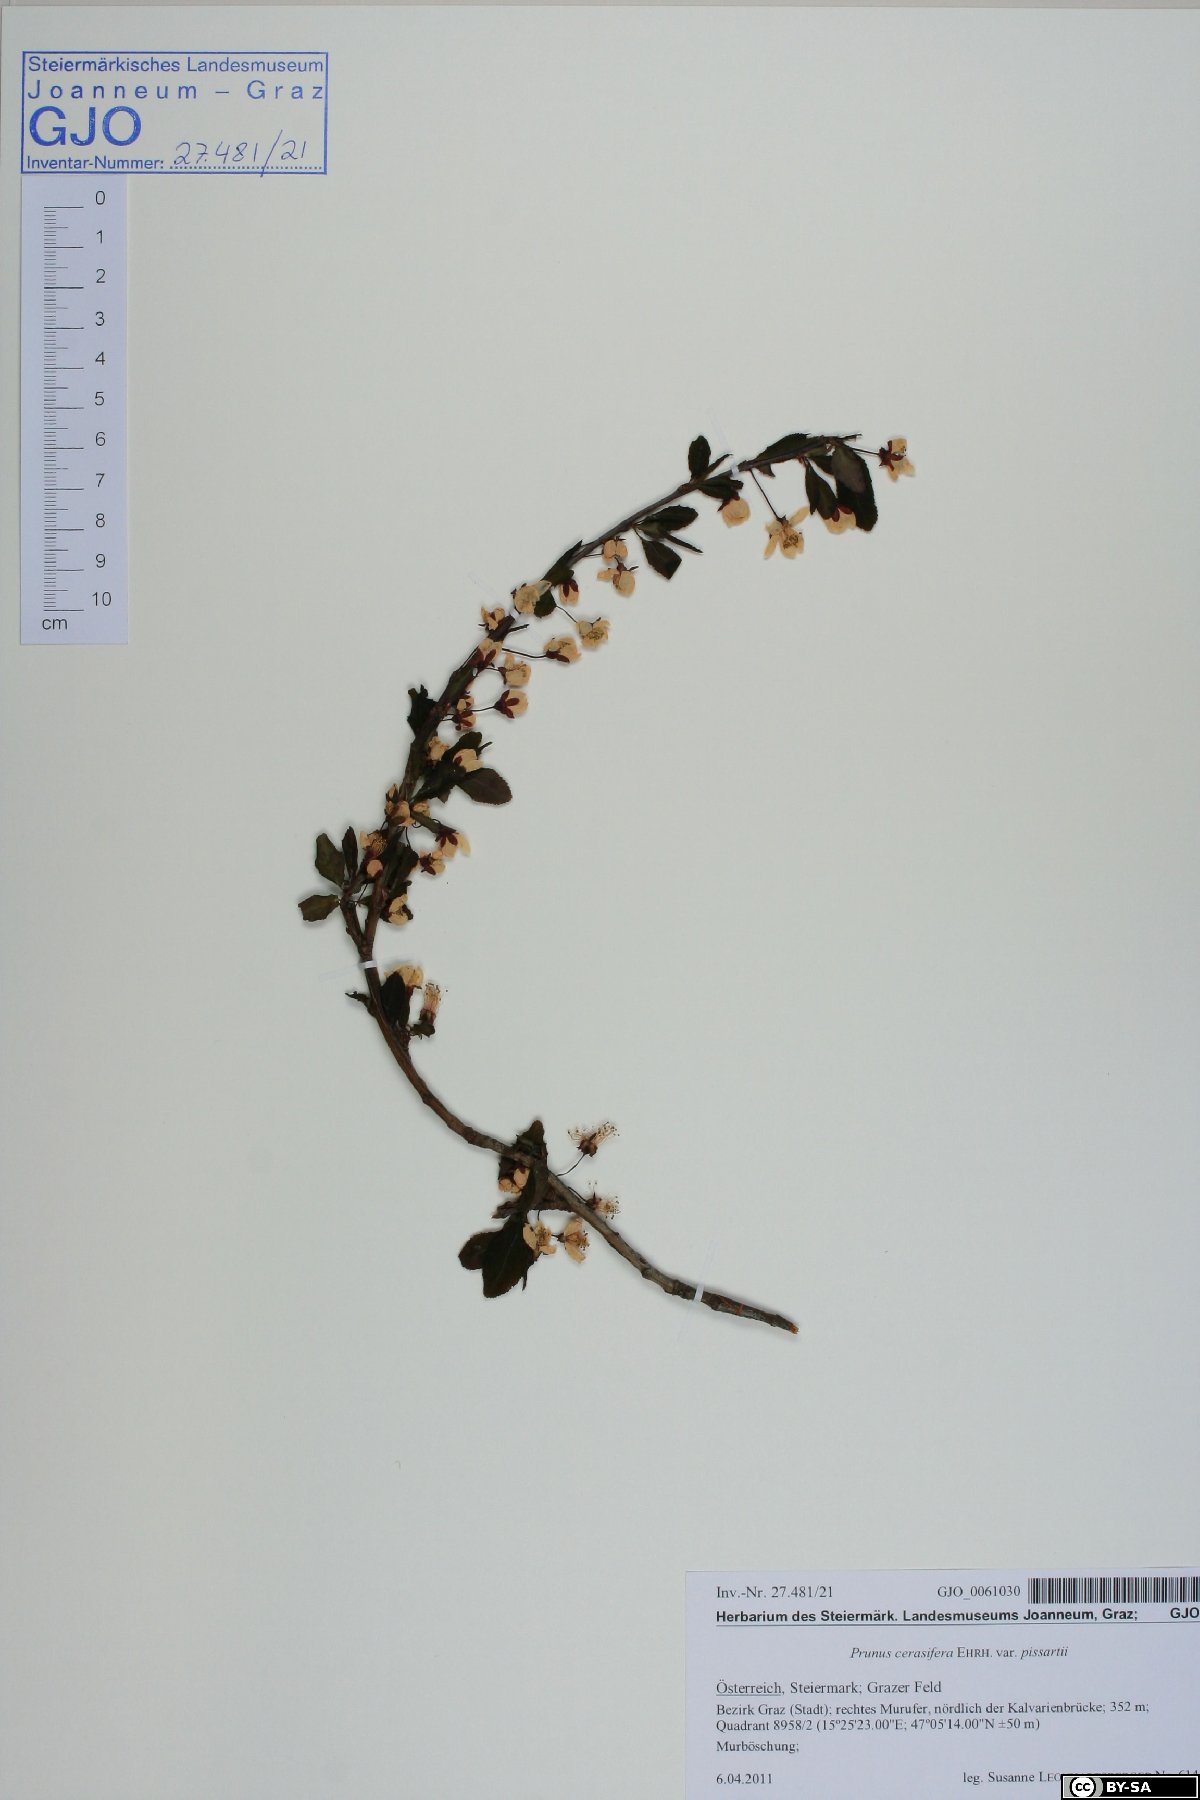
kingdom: Plantae
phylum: Tracheophyta
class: Magnoliopsida
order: Rosales
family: Rosaceae
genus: Prunus
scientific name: Prunus cerasifera
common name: Cherry plum
